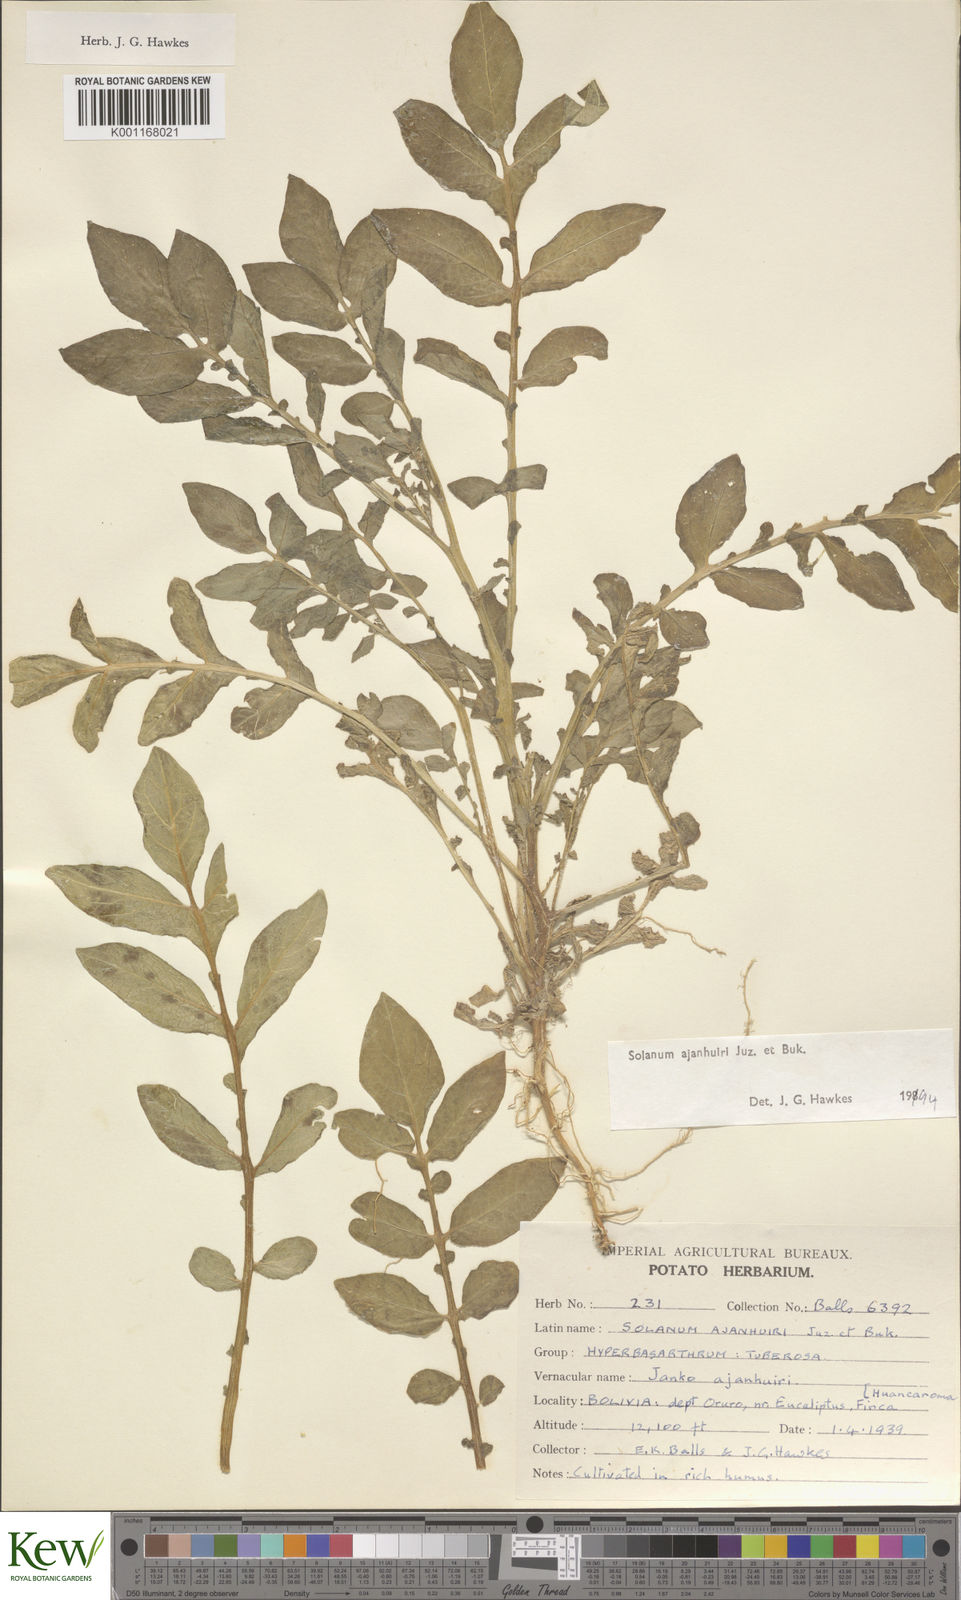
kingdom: Plantae
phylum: Tracheophyta
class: Magnoliopsida
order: Solanales
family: Solanaceae
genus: Solanum
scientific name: Solanum ajanhuiri
